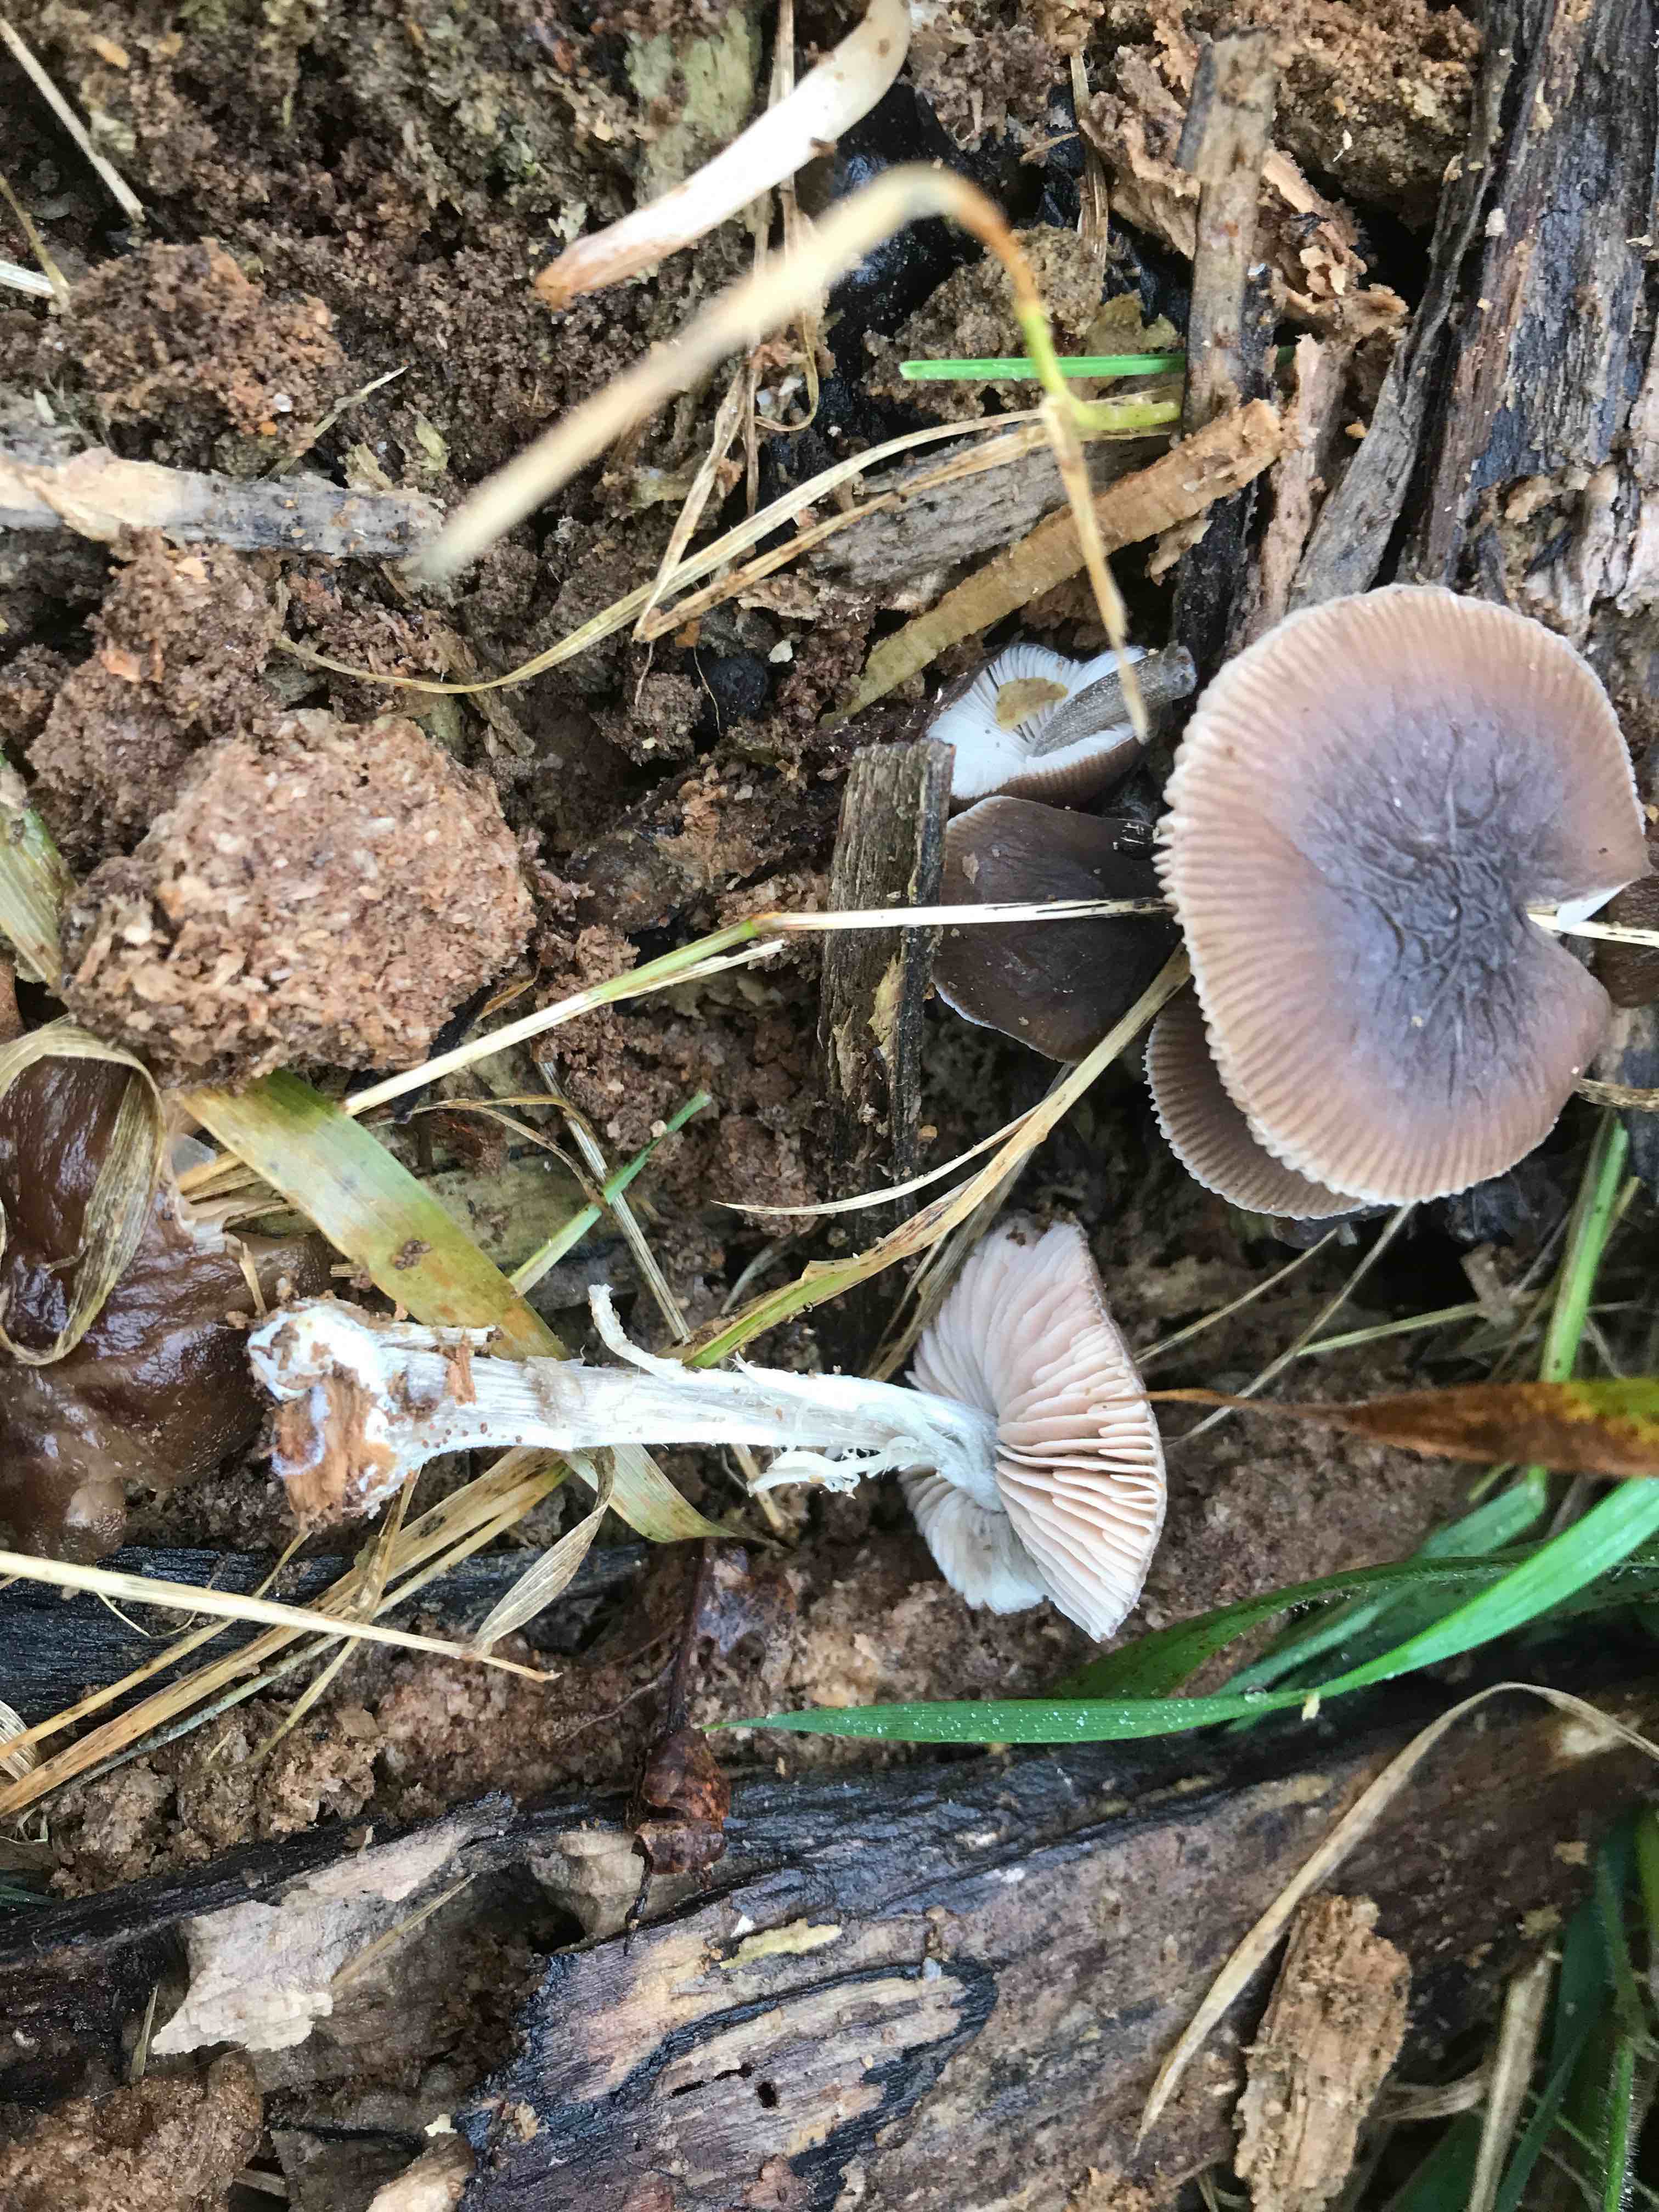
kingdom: Fungi
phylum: Basidiomycota
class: Agaricomycetes
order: Agaricales
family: Pluteaceae
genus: Pluteus
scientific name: Pluteus diverticulatus
